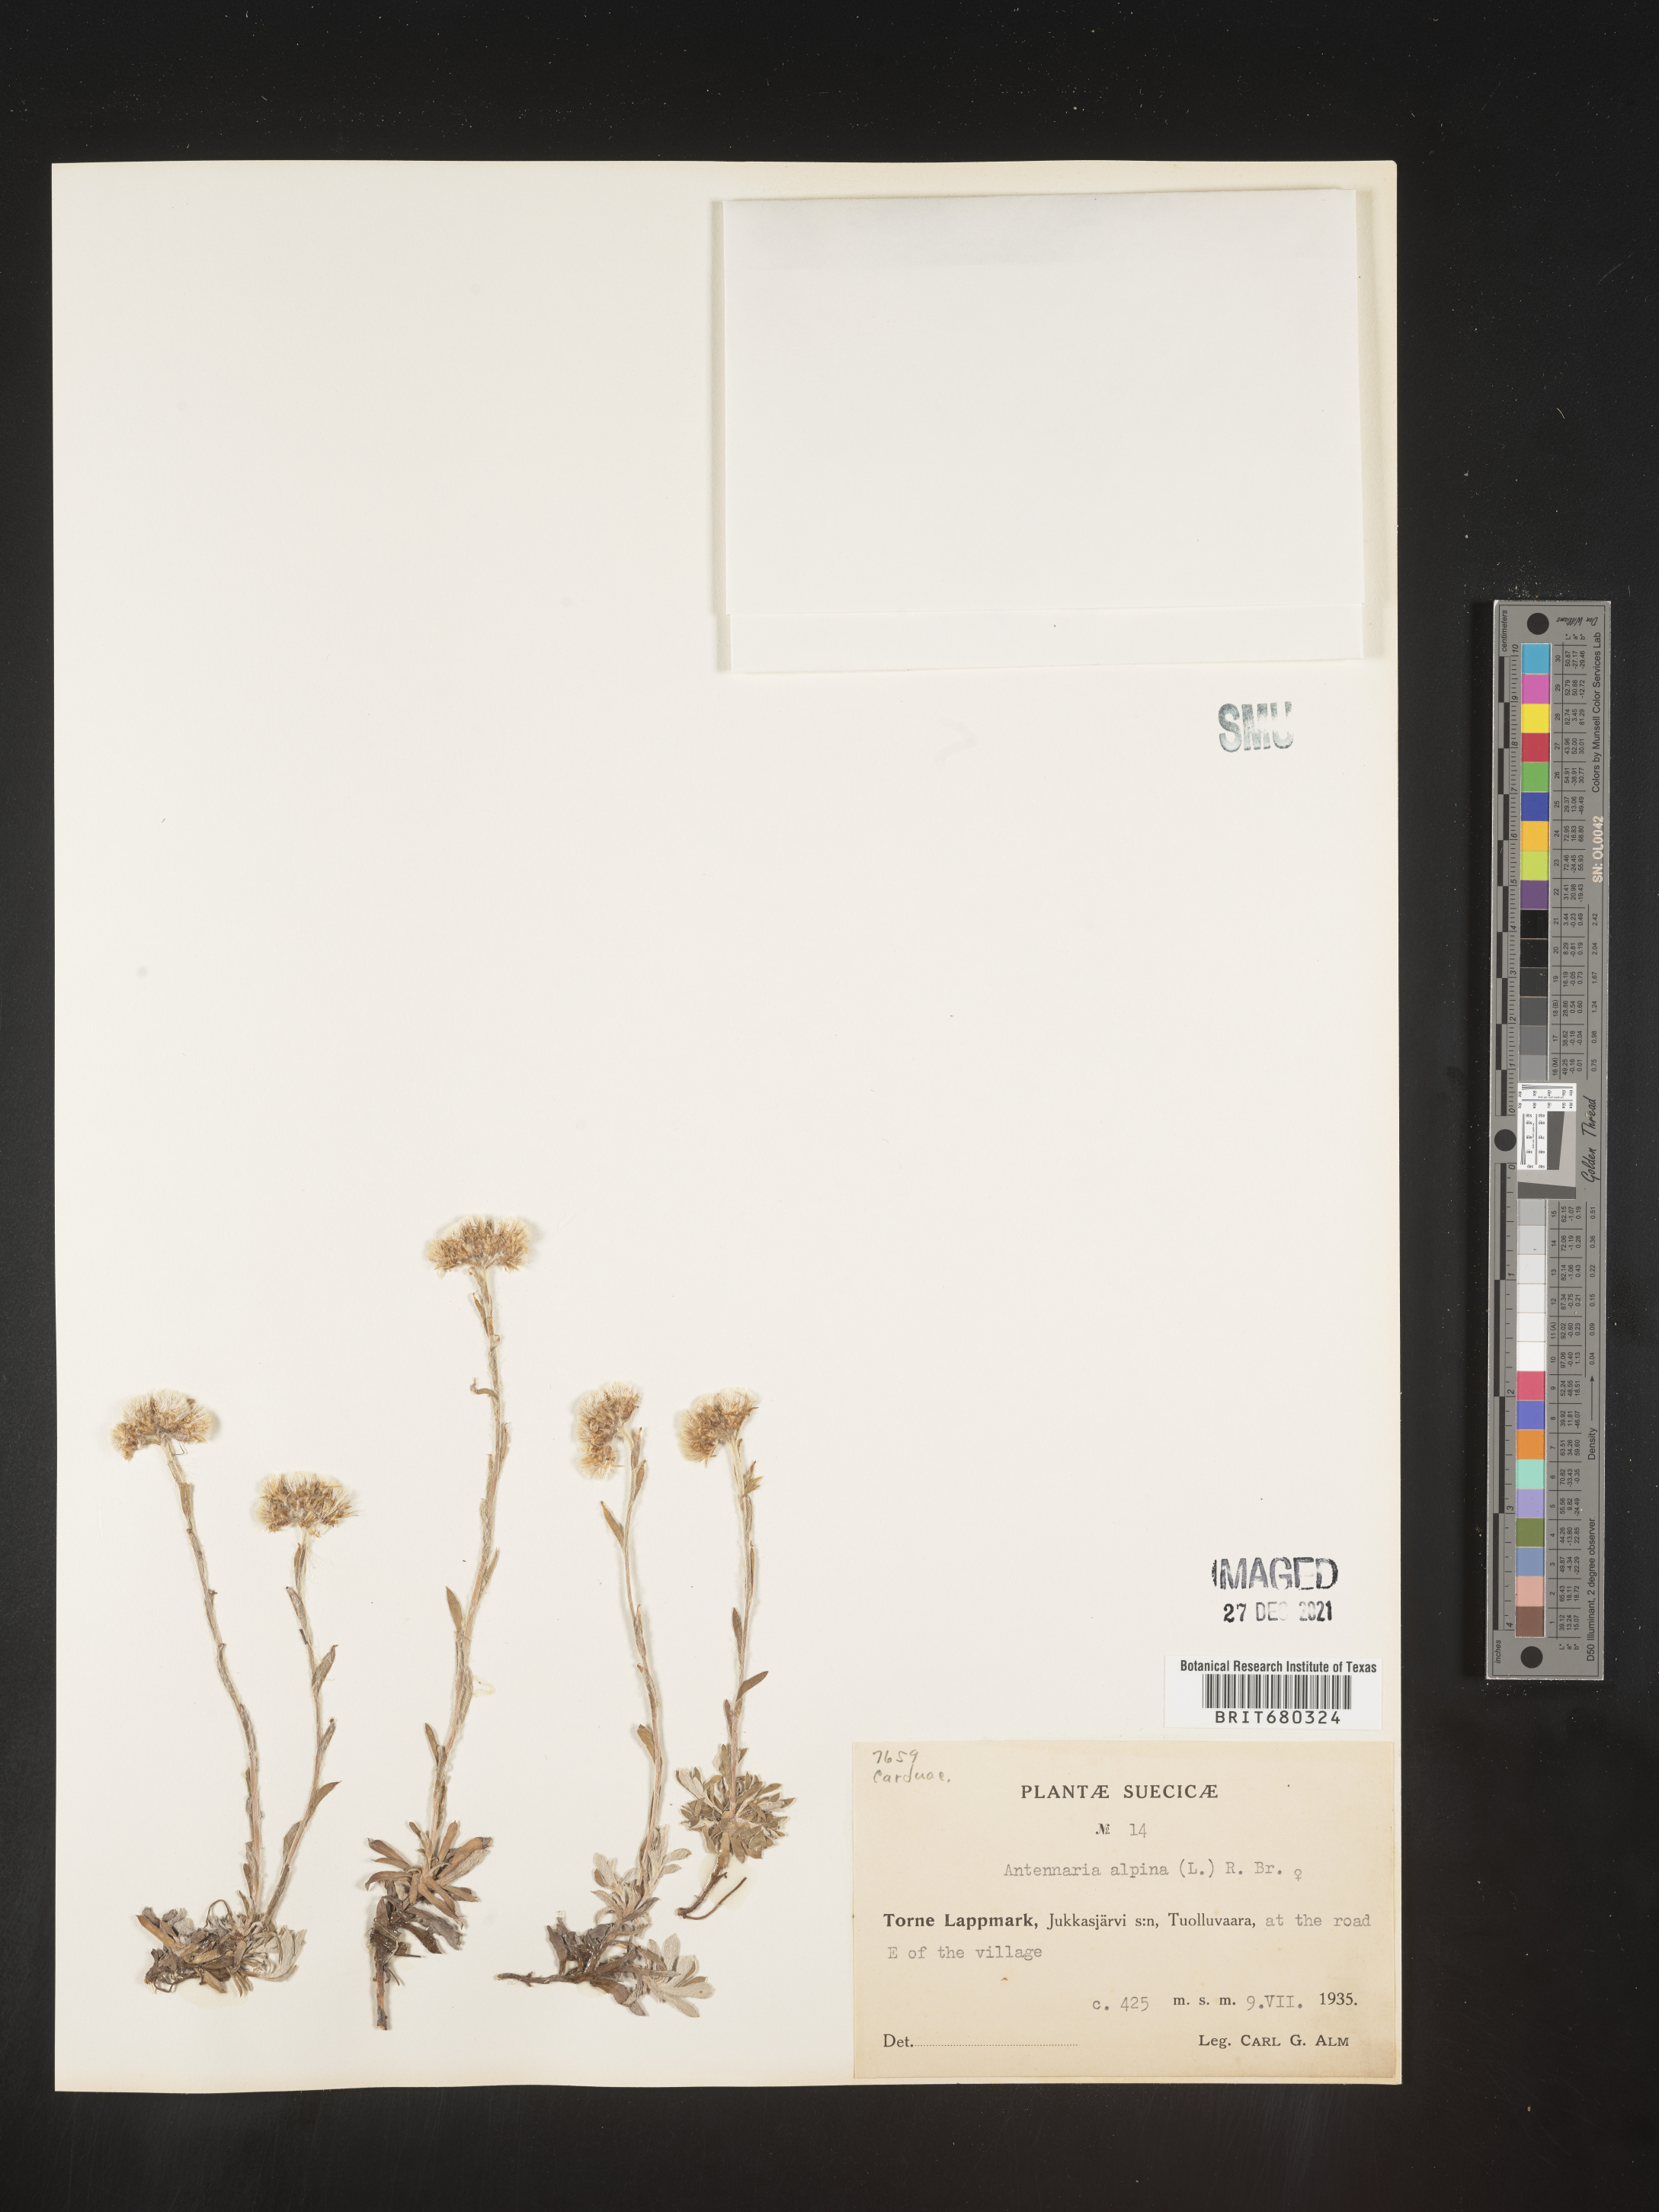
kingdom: Plantae
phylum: Tracheophyta
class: Magnoliopsida
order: Asterales
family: Asteraceae
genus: Antennaria
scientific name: Antennaria
